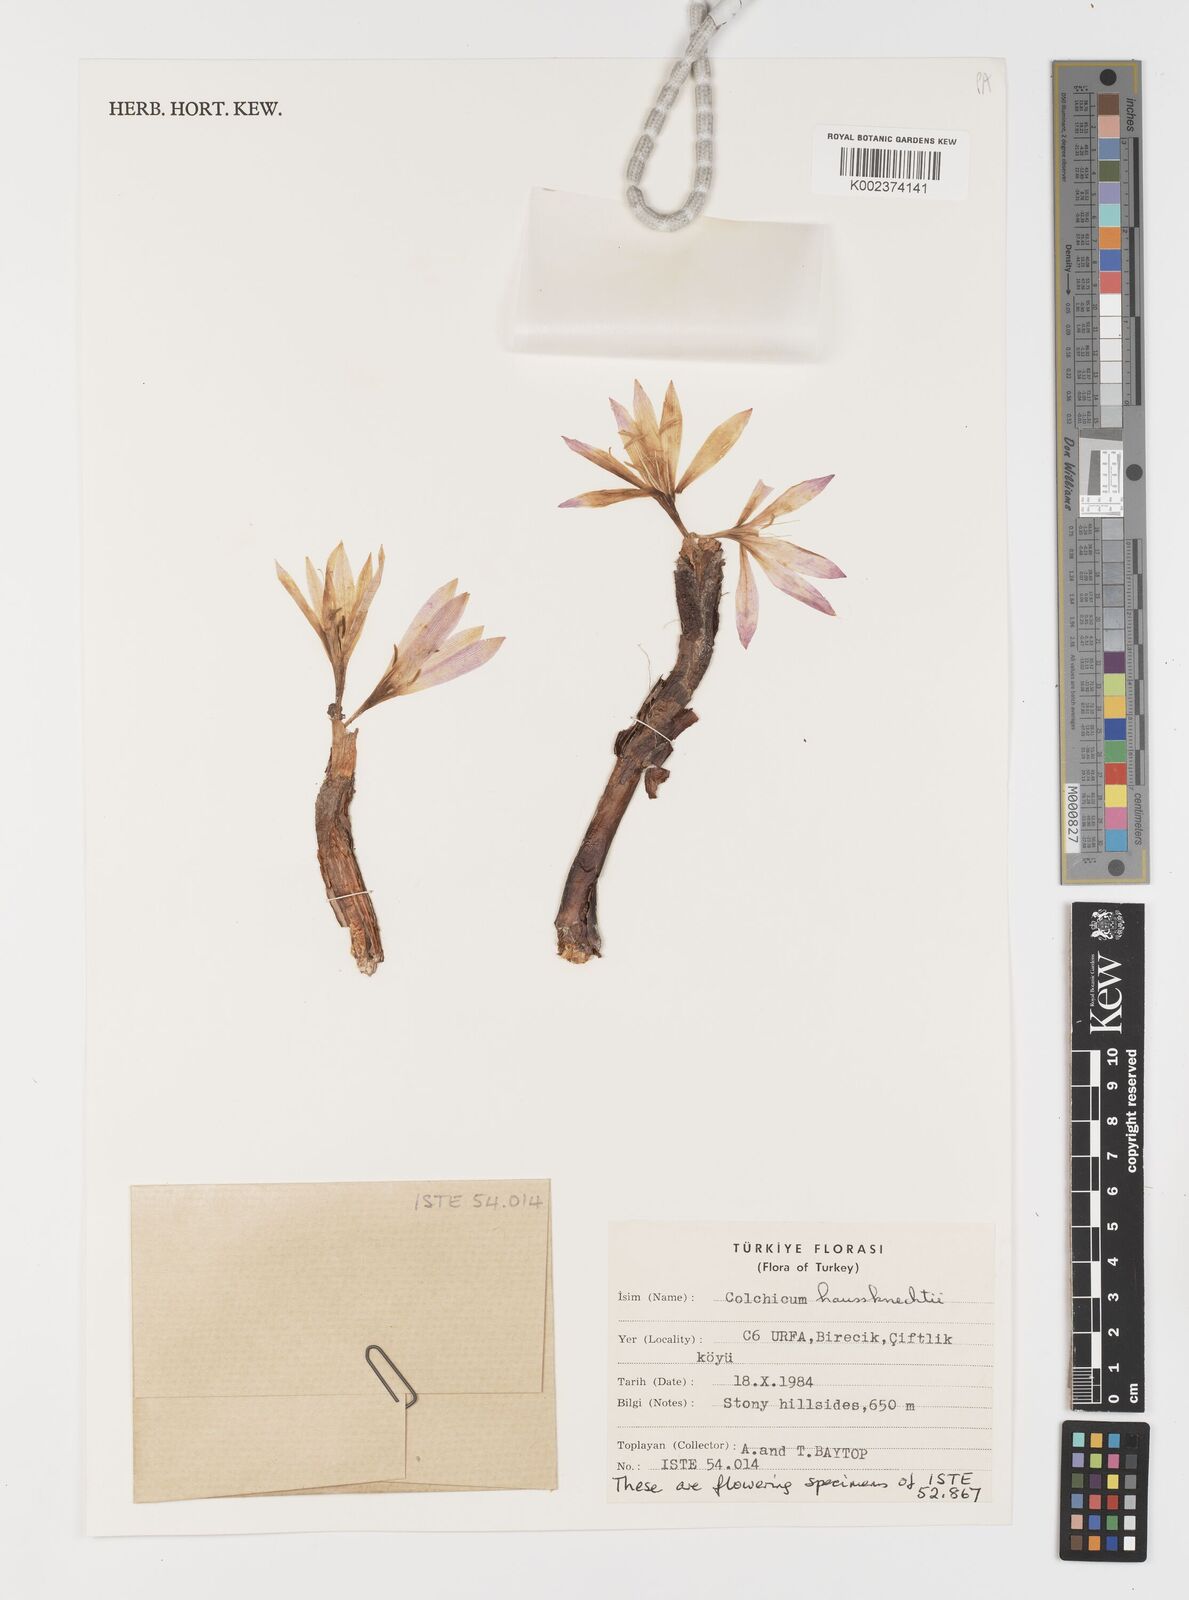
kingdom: Plantae
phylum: Tracheophyta
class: Liliopsida
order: Liliales
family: Colchicaceae
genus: Colchicum
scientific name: Colchicum persicum
